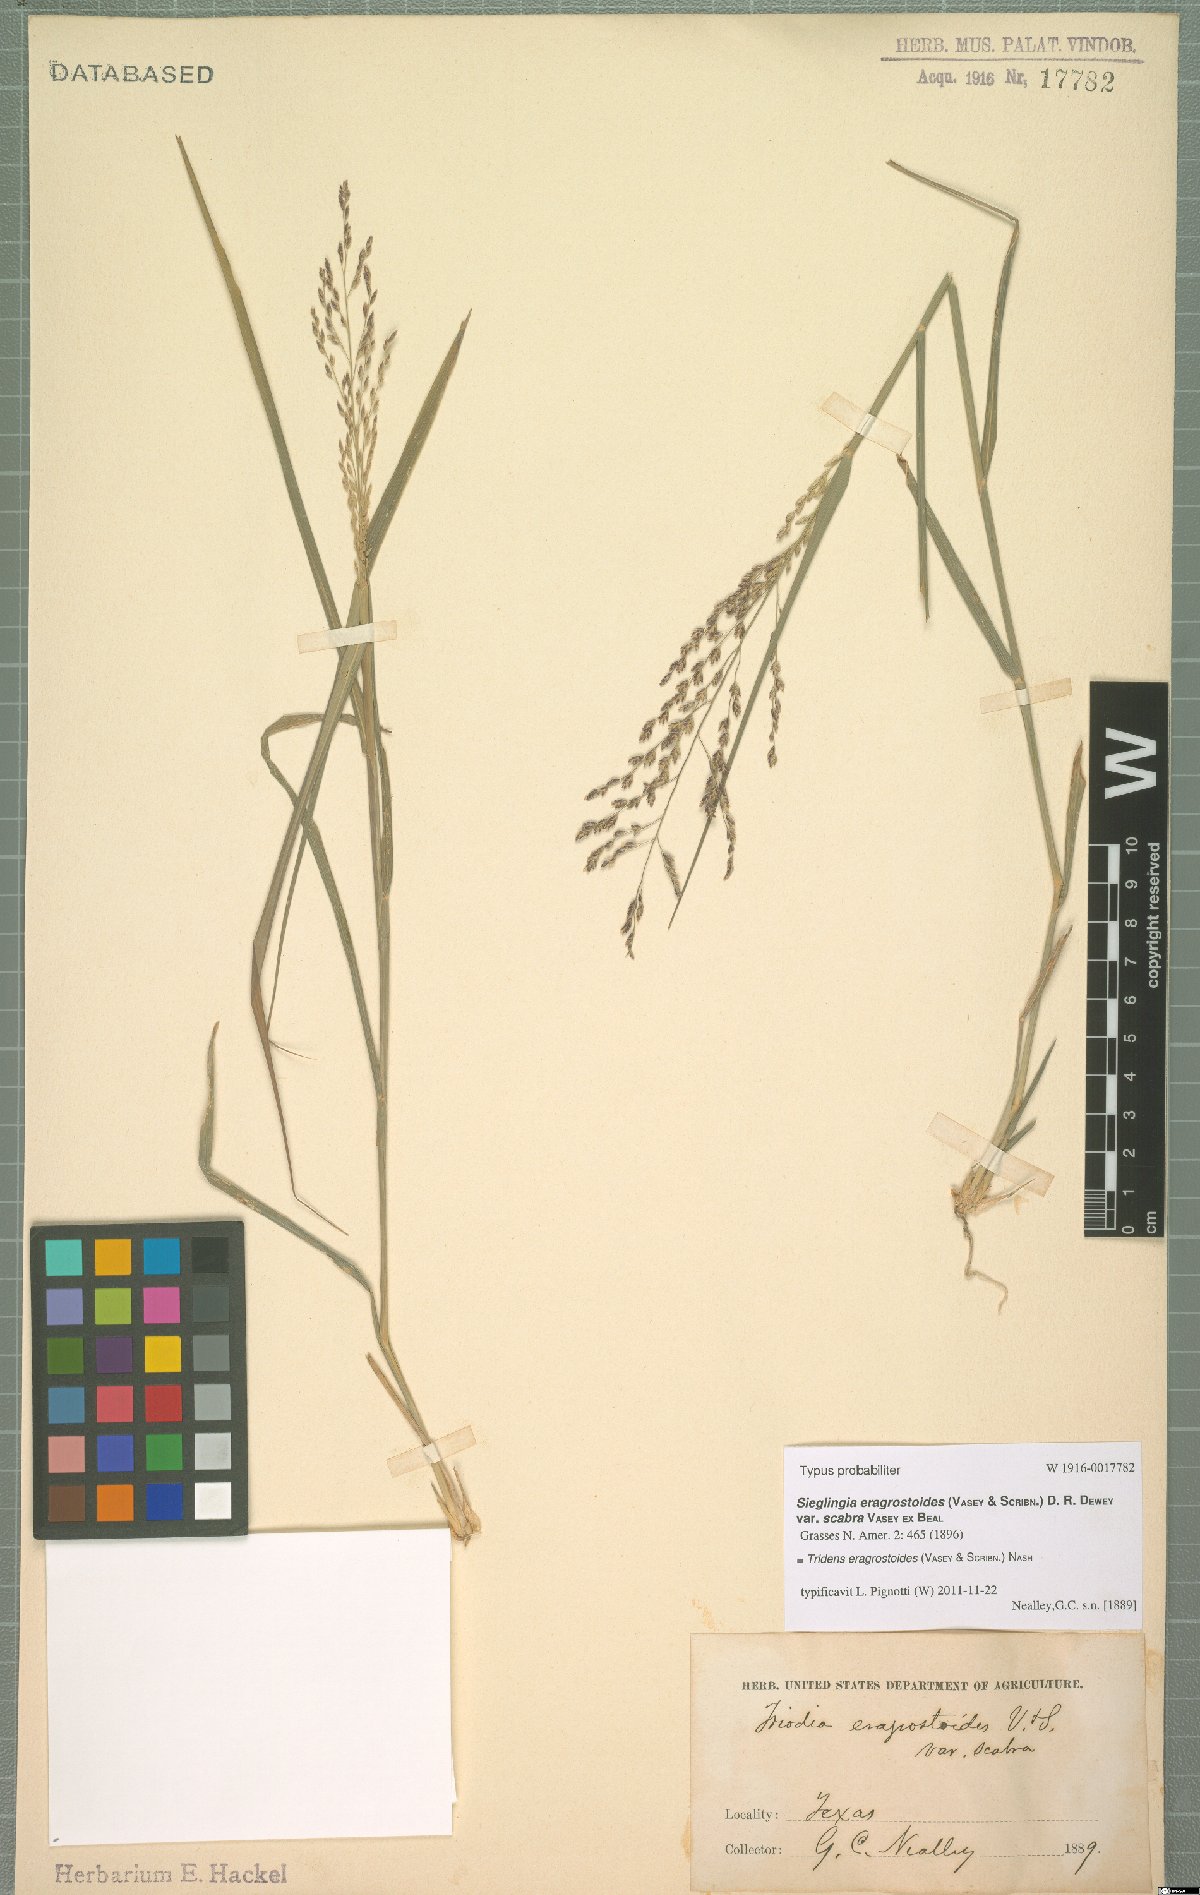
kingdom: Plantae
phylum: Tracheophyta
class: Liliopsida
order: Poales
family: Poaceae
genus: Triplasiella
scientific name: Triplasiella eragrostoides
